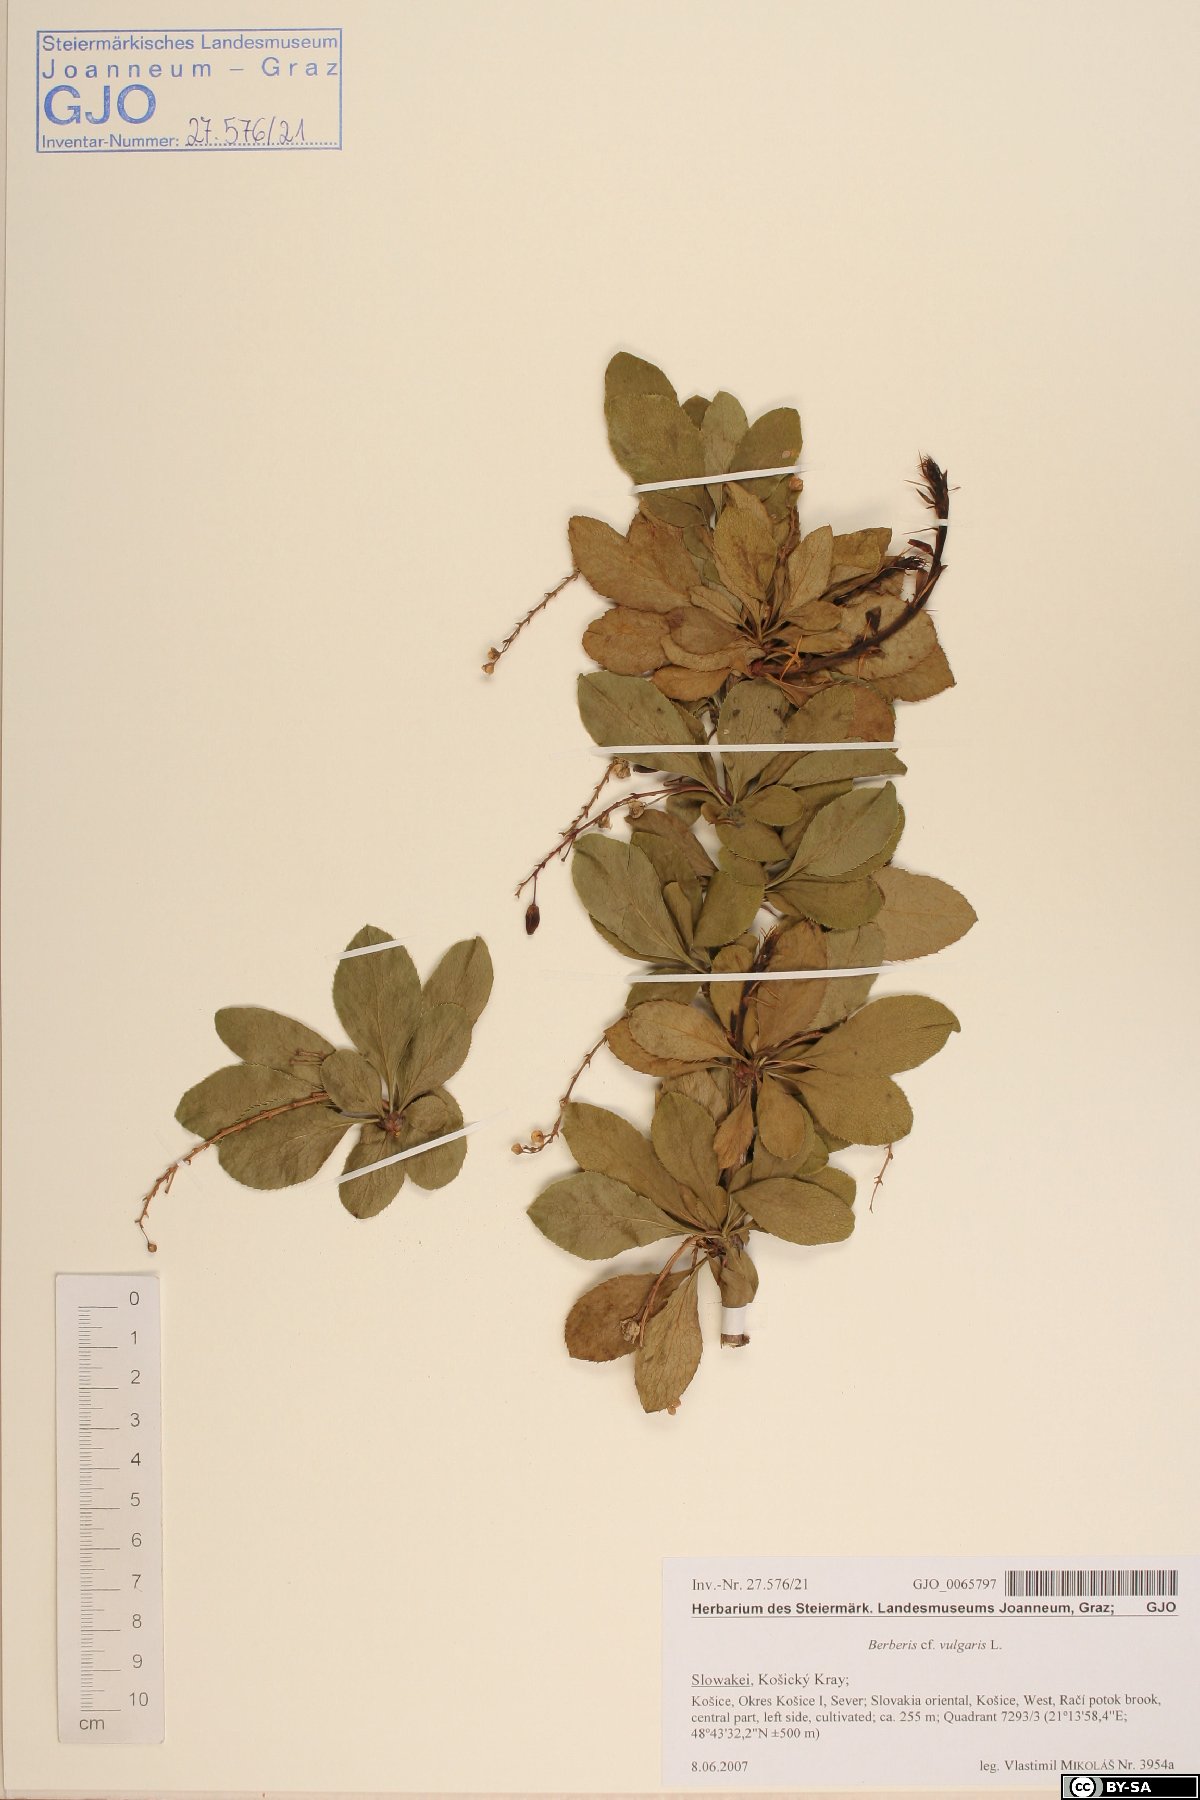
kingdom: Plantae
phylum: Tracheophyta
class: Magnoliopsida
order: Ranunculales
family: Berberidaceae
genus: Berberis
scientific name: Berberis vulgaris
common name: Barberry
